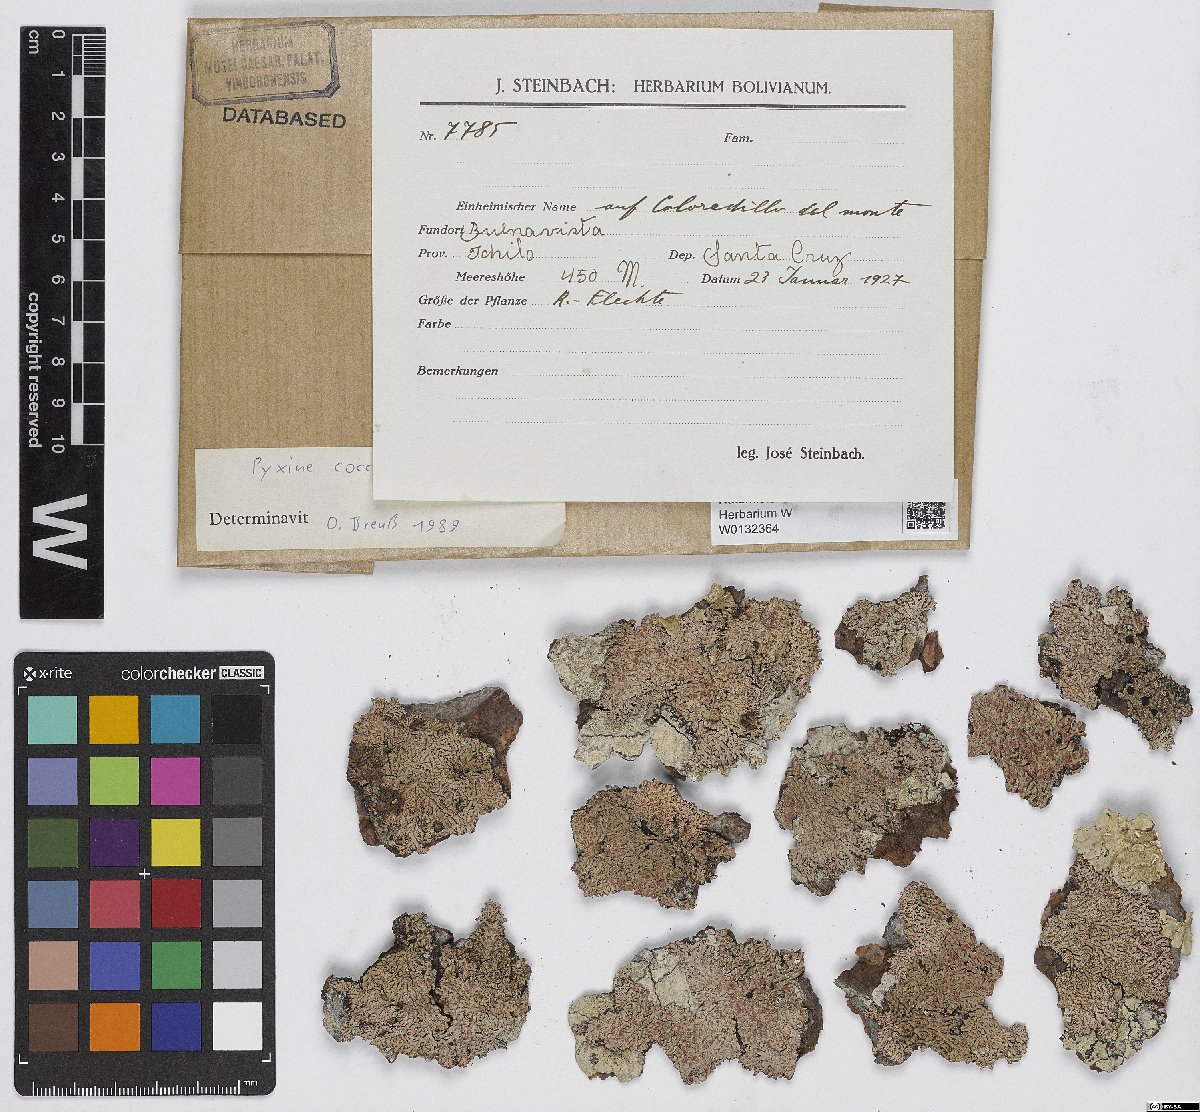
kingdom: Fungi
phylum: Ascomycota
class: Lecanoromycetes
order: Caliciales
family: Caliciaceae
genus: Pyxine
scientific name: Pyxine coccifera
